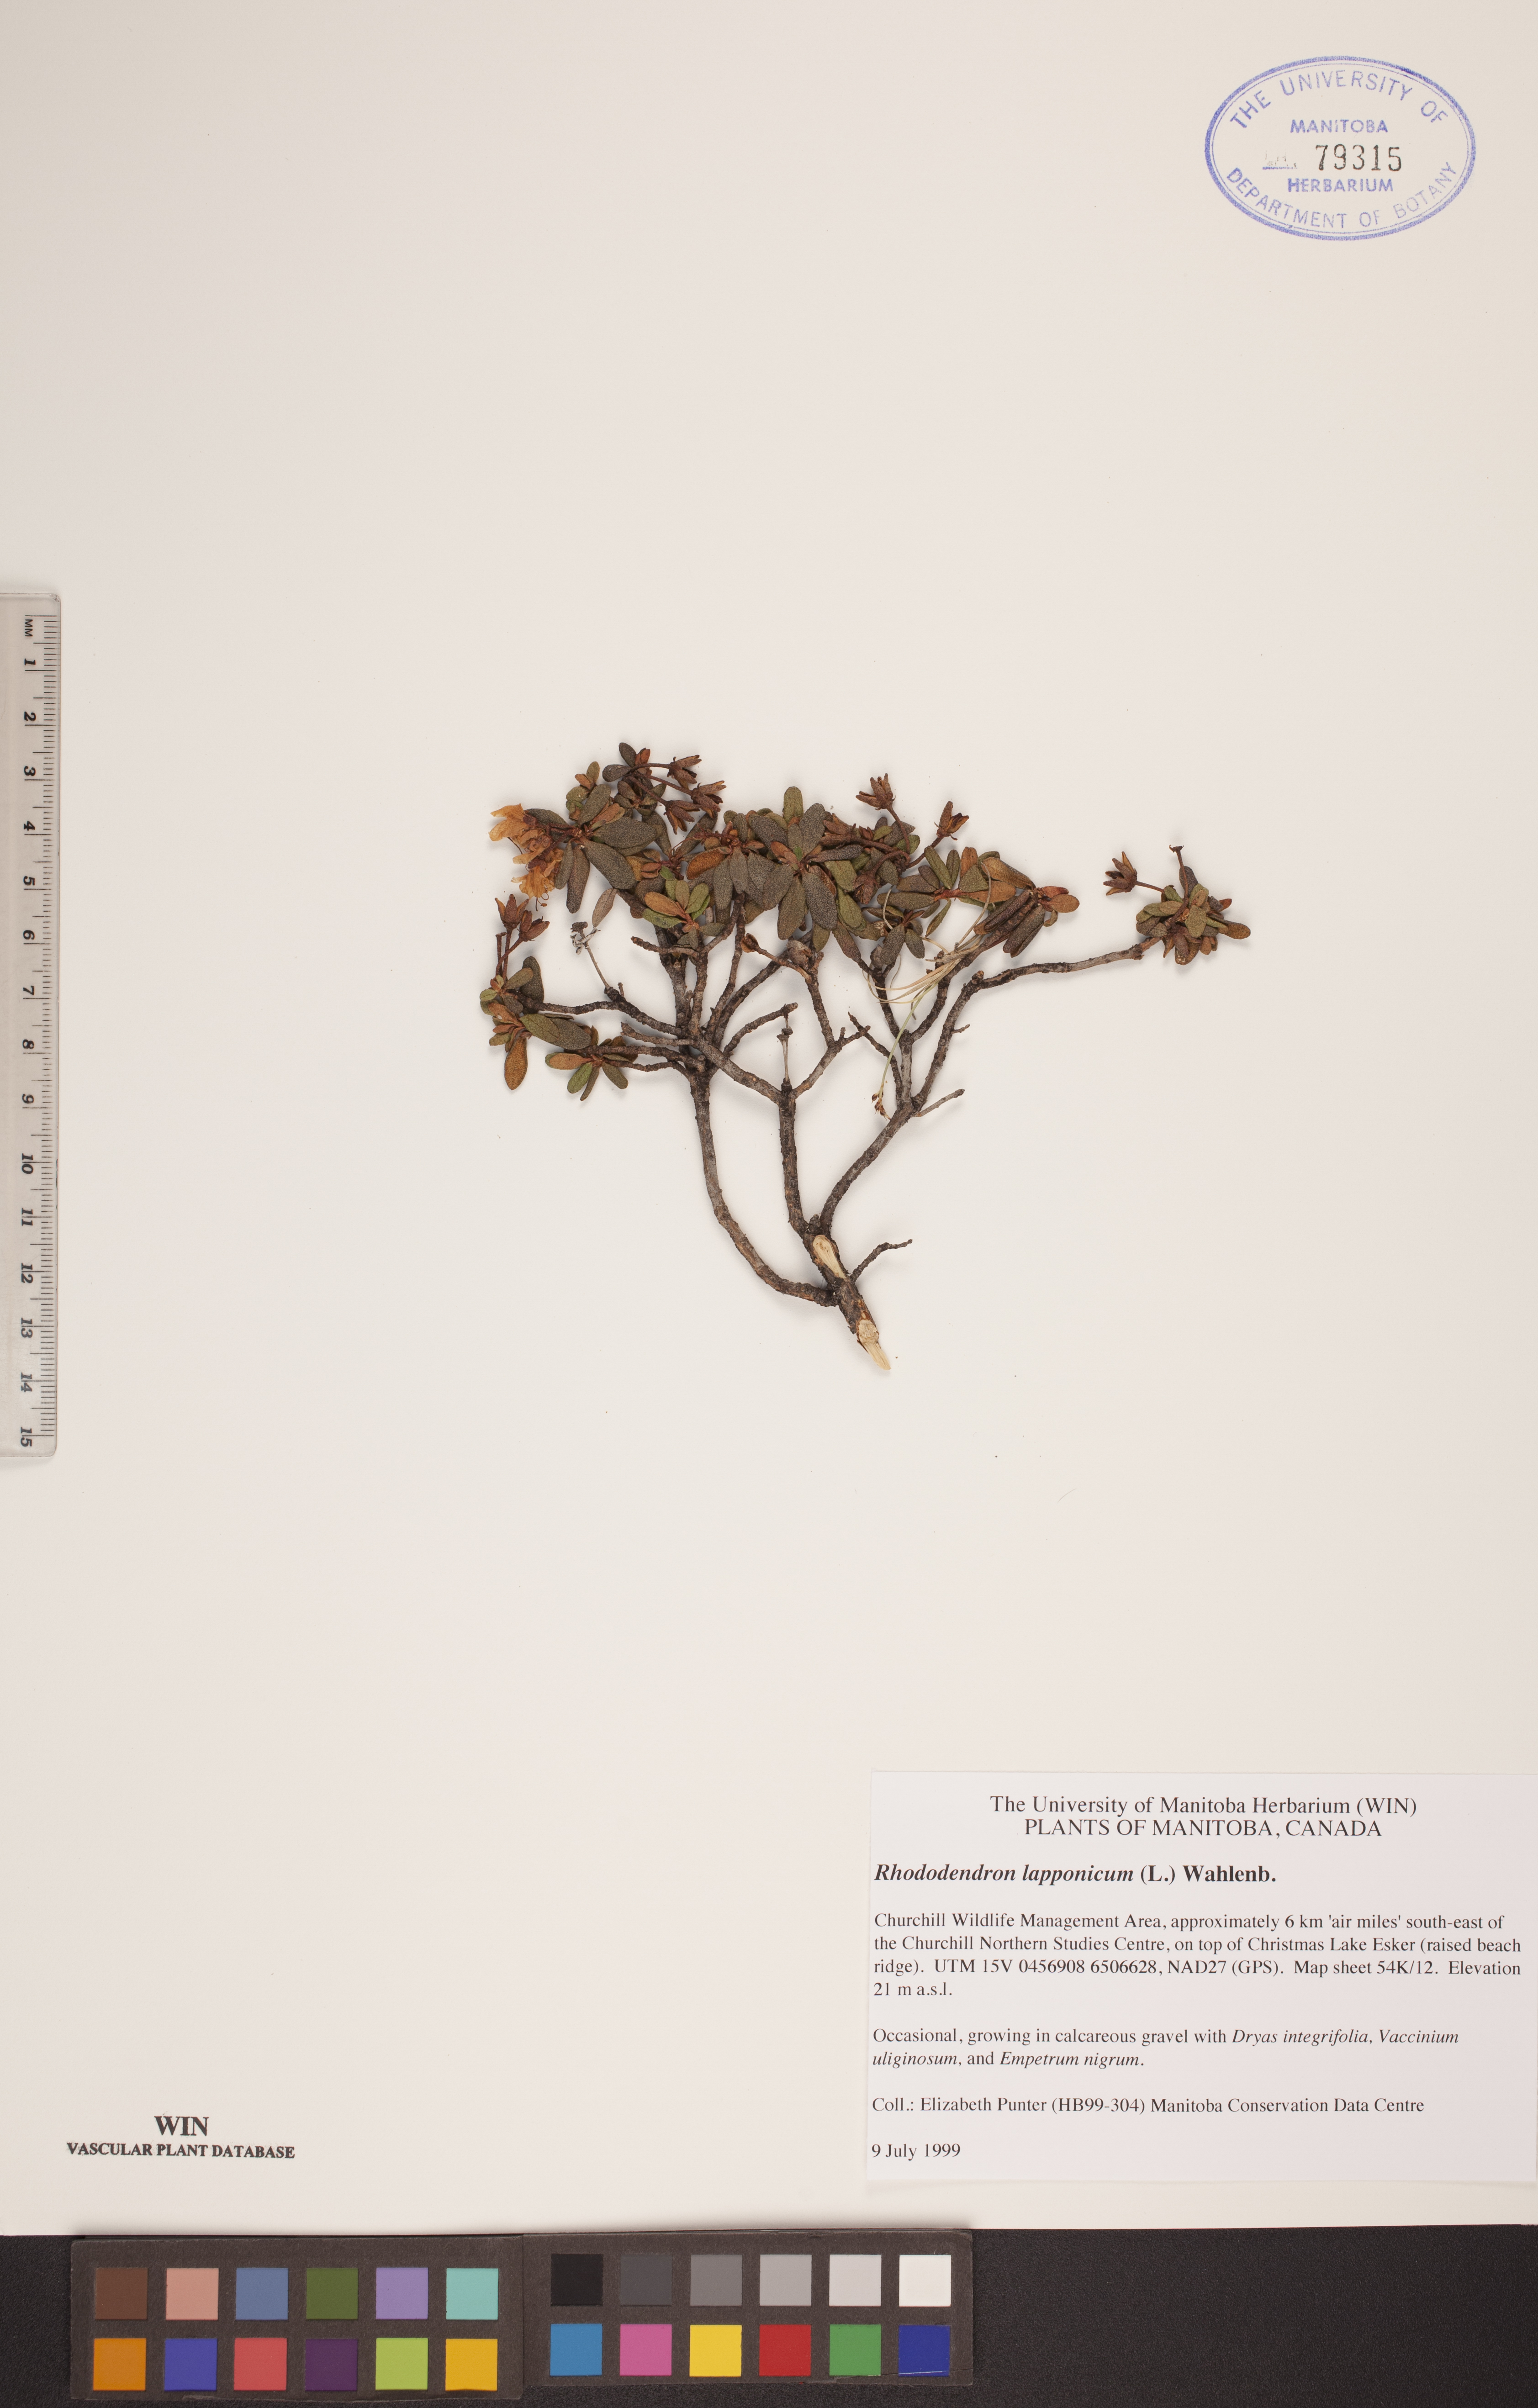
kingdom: Plantae
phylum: Tracheophyta
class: Magnoliopsida
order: Ericales
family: Ericaceae
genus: Rhododendron
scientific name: Rhododendron lapponicum
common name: Lapland rhododendron
